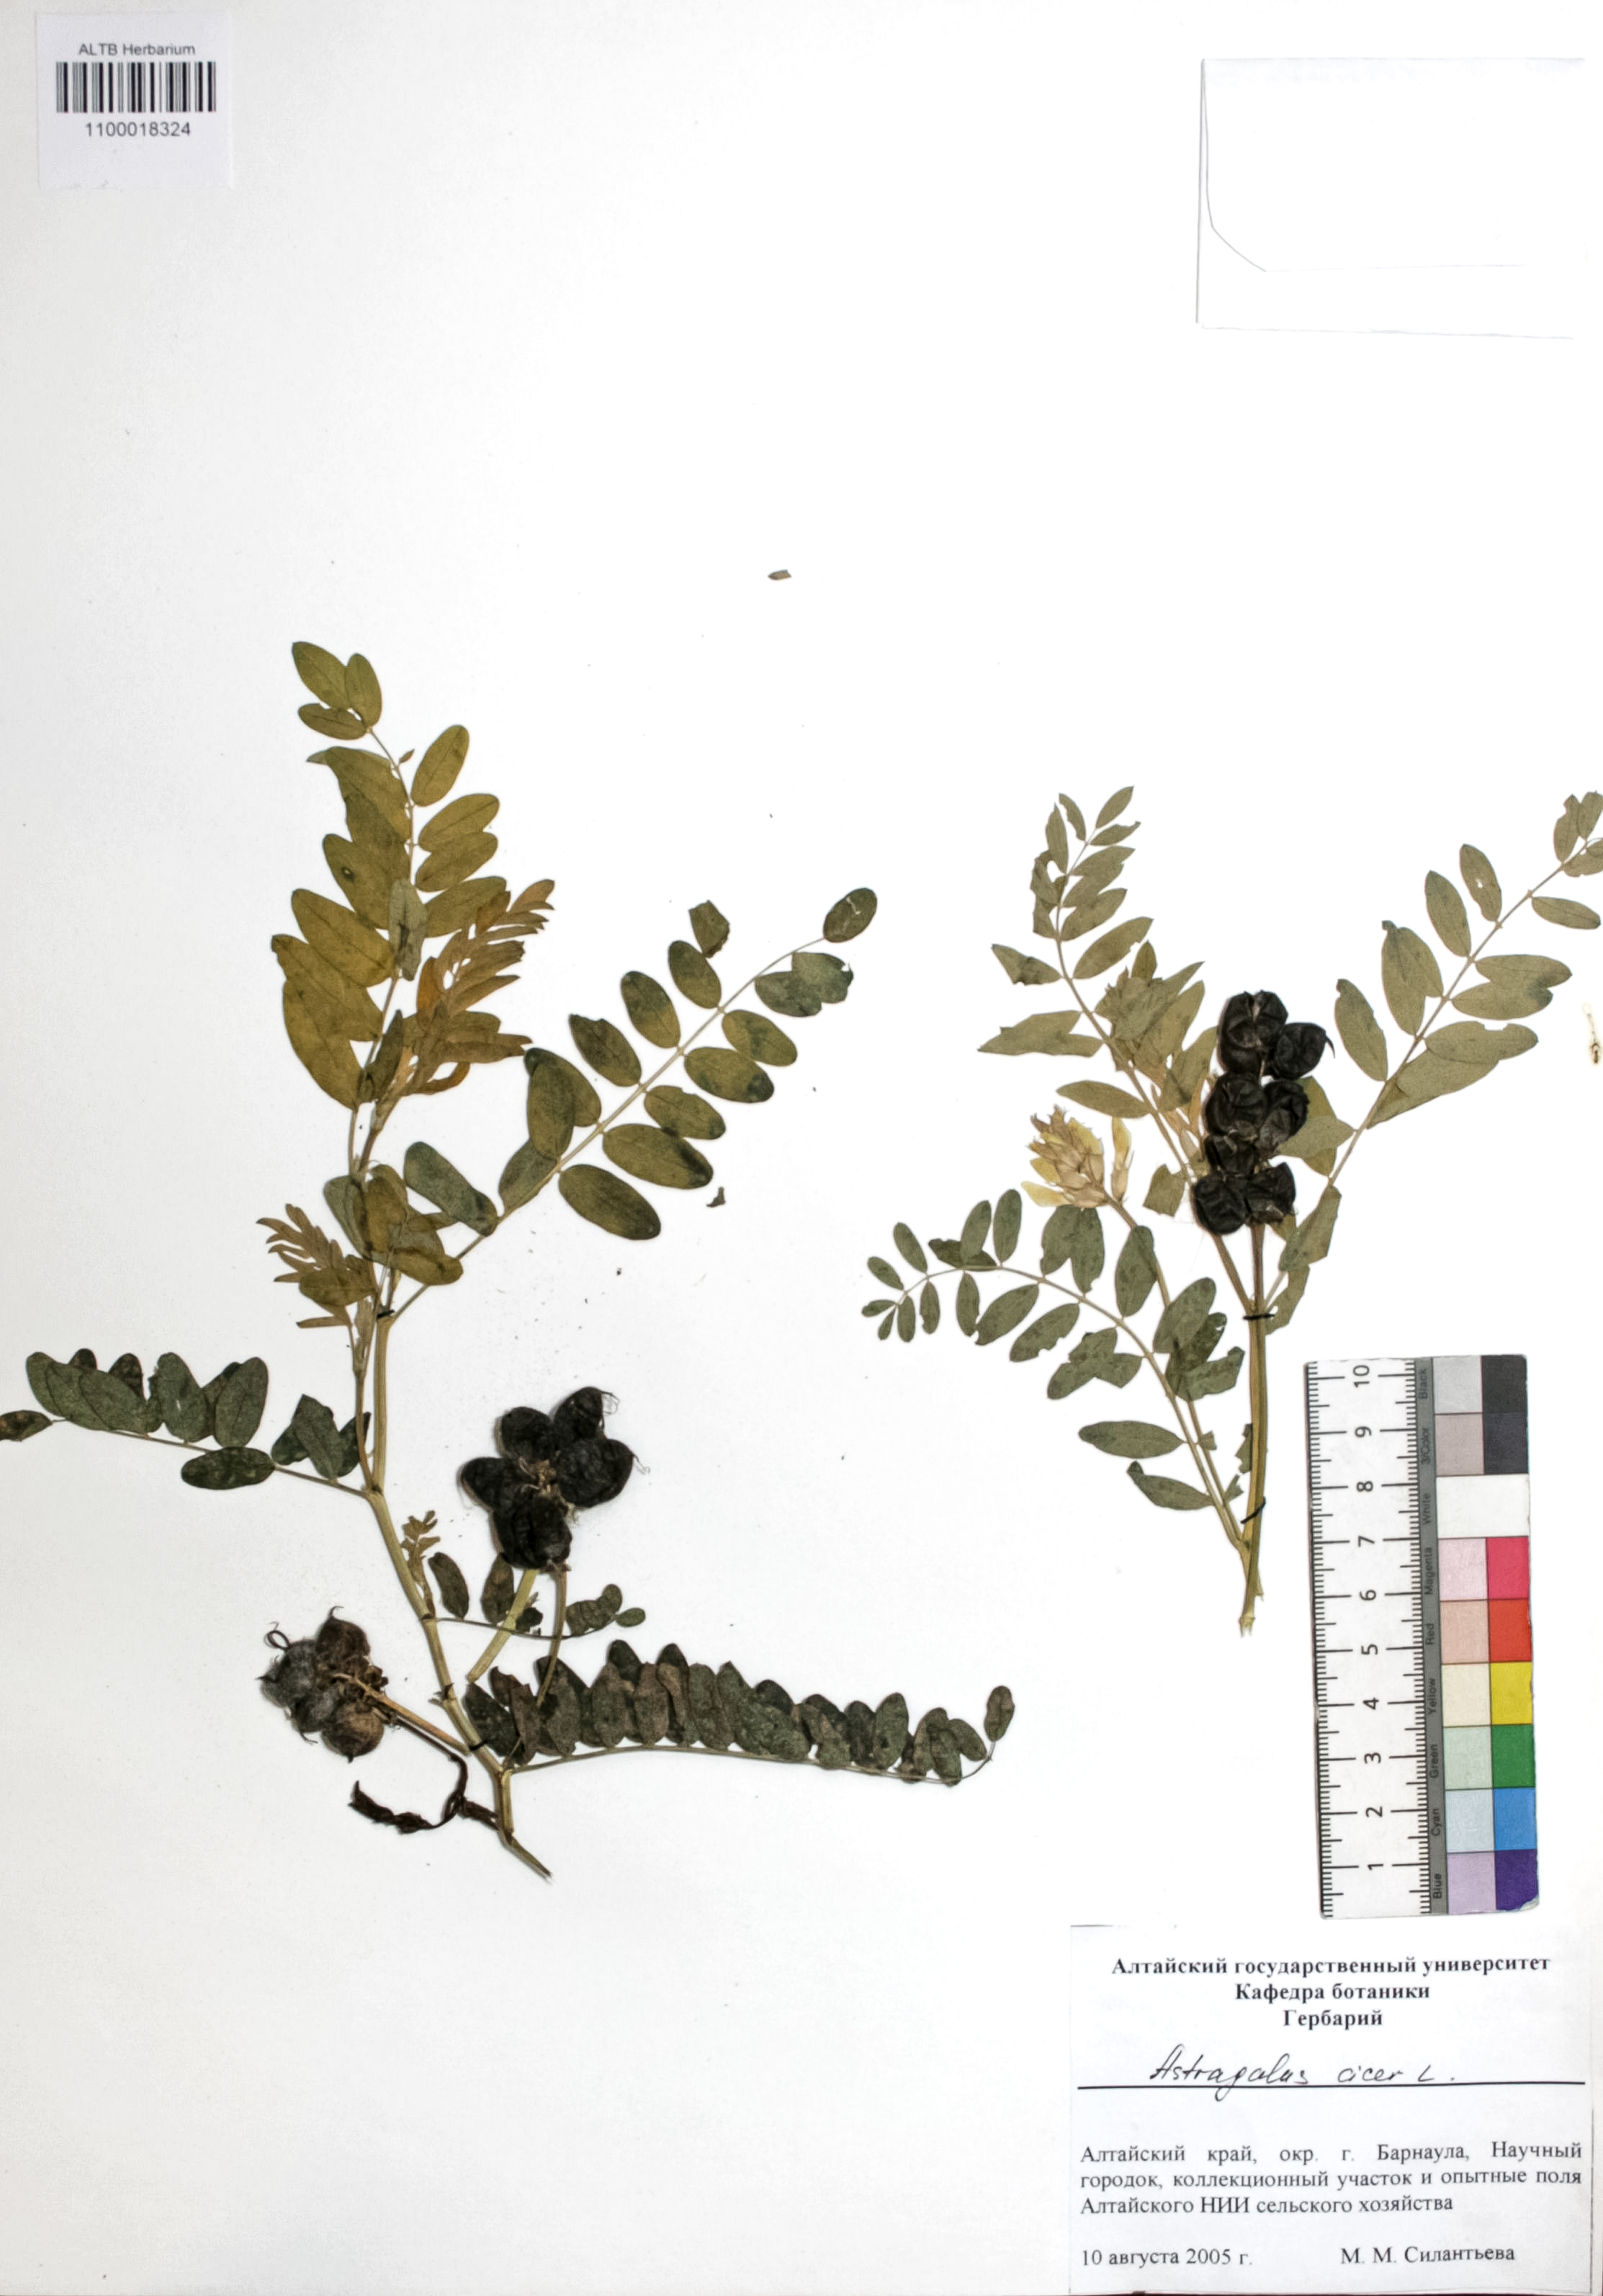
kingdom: Plantae
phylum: Tracheophyta
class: Magnoliopsida
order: Fabales
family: Fabaceae
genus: Astragalus
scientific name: Astragalus cicer
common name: Chick-pea milk-vetch
